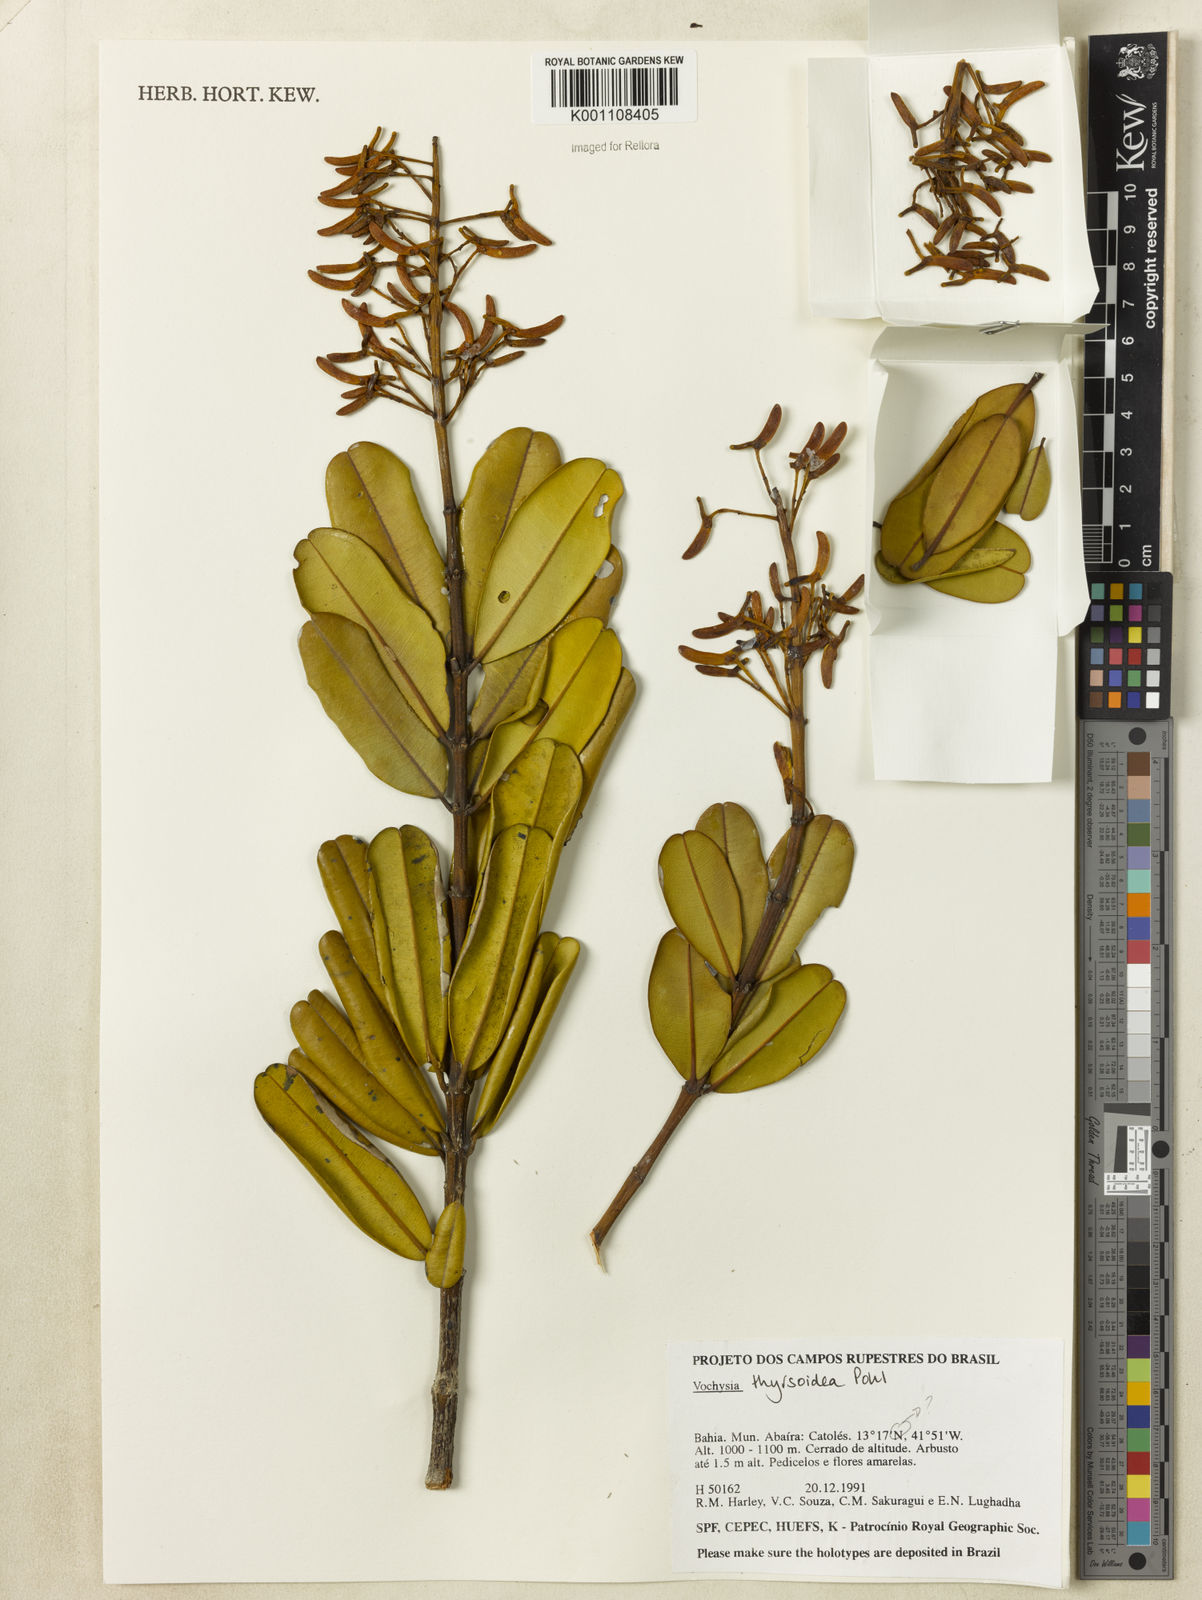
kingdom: Plantae
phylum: Tracheophyta
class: Magnoliopsida
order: Myrtales
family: Vochysiaceae
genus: Vochysia
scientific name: Vochysia thyrsoidea
